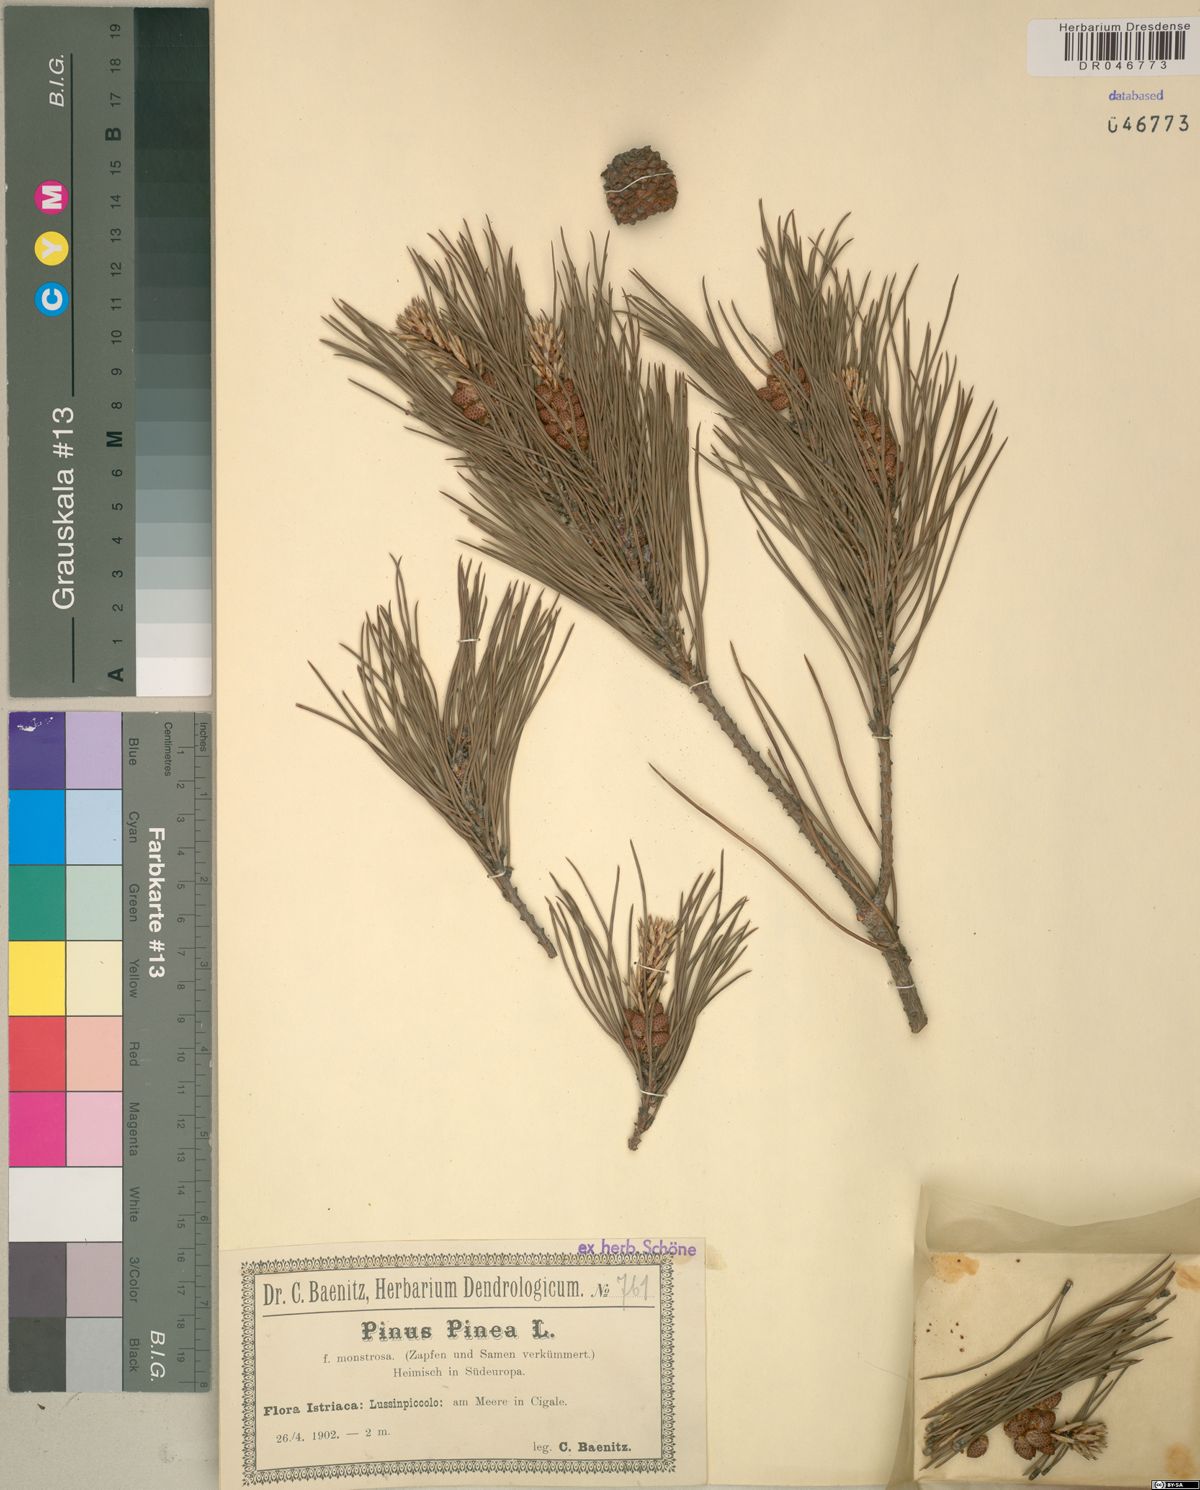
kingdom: Plantae
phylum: Tracheophyta
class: Pinopsida
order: Pinales
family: Pinaceae
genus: Pinus
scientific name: Pinus pinea
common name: Italian stone pine
